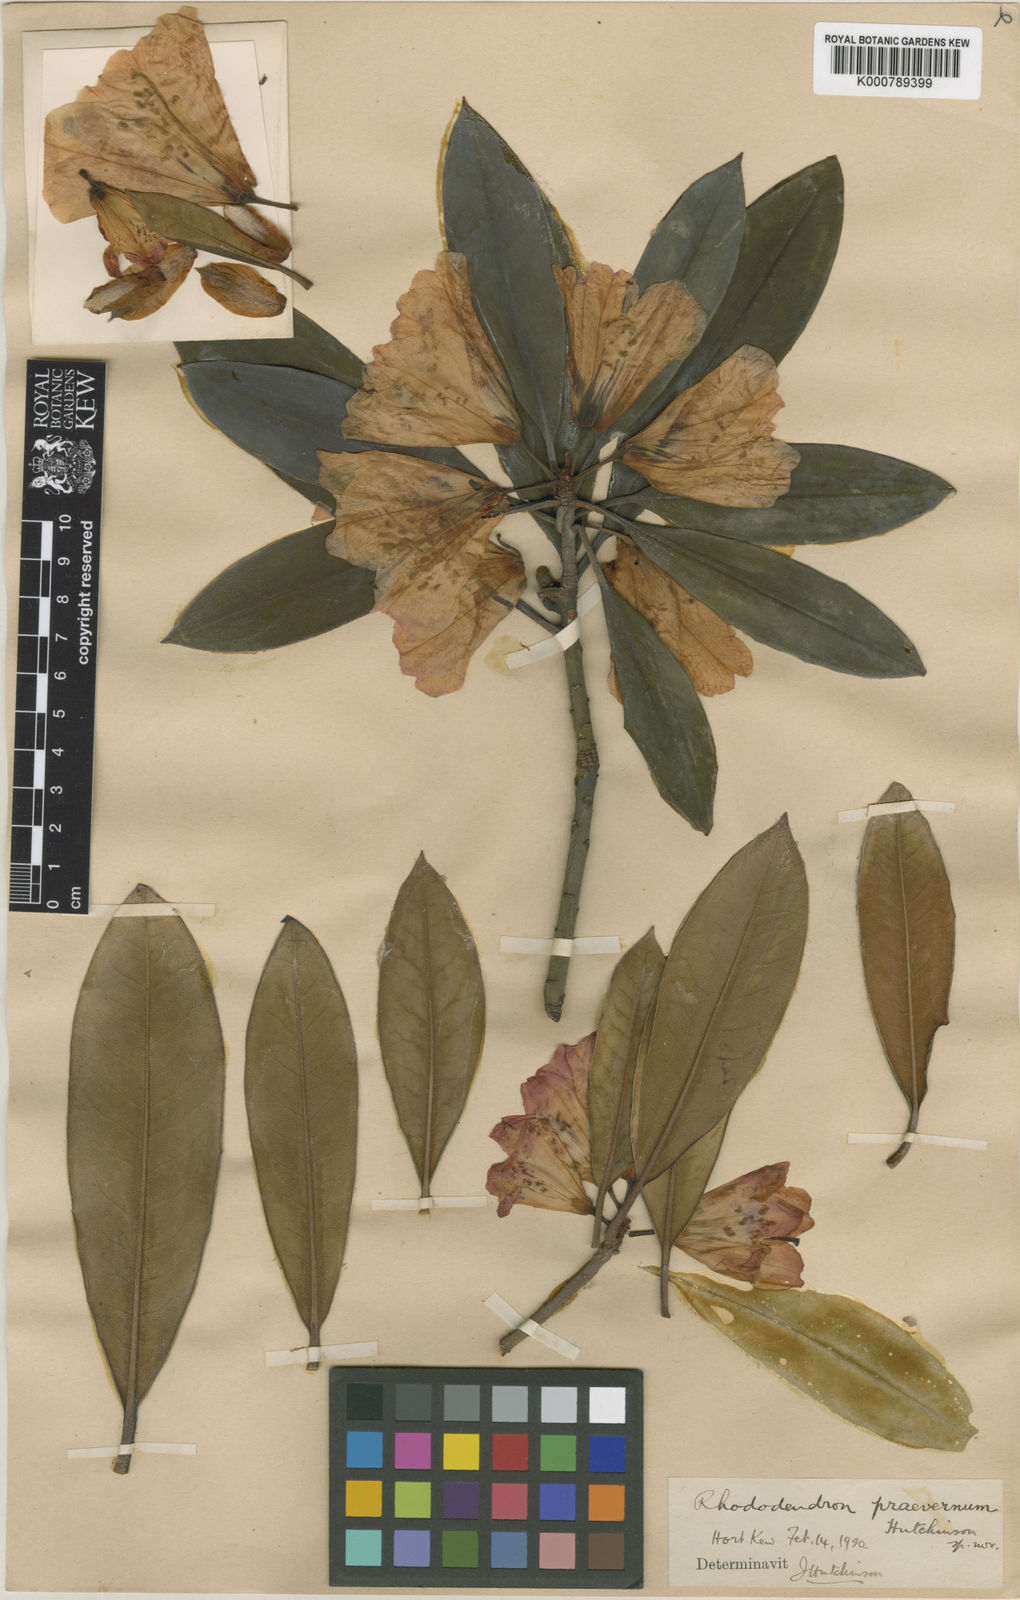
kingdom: Plantae
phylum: Tracheophyta
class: Magnoliopsida
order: Ericales
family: Ericaceae
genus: Rhododendron
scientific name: Rhododendron
